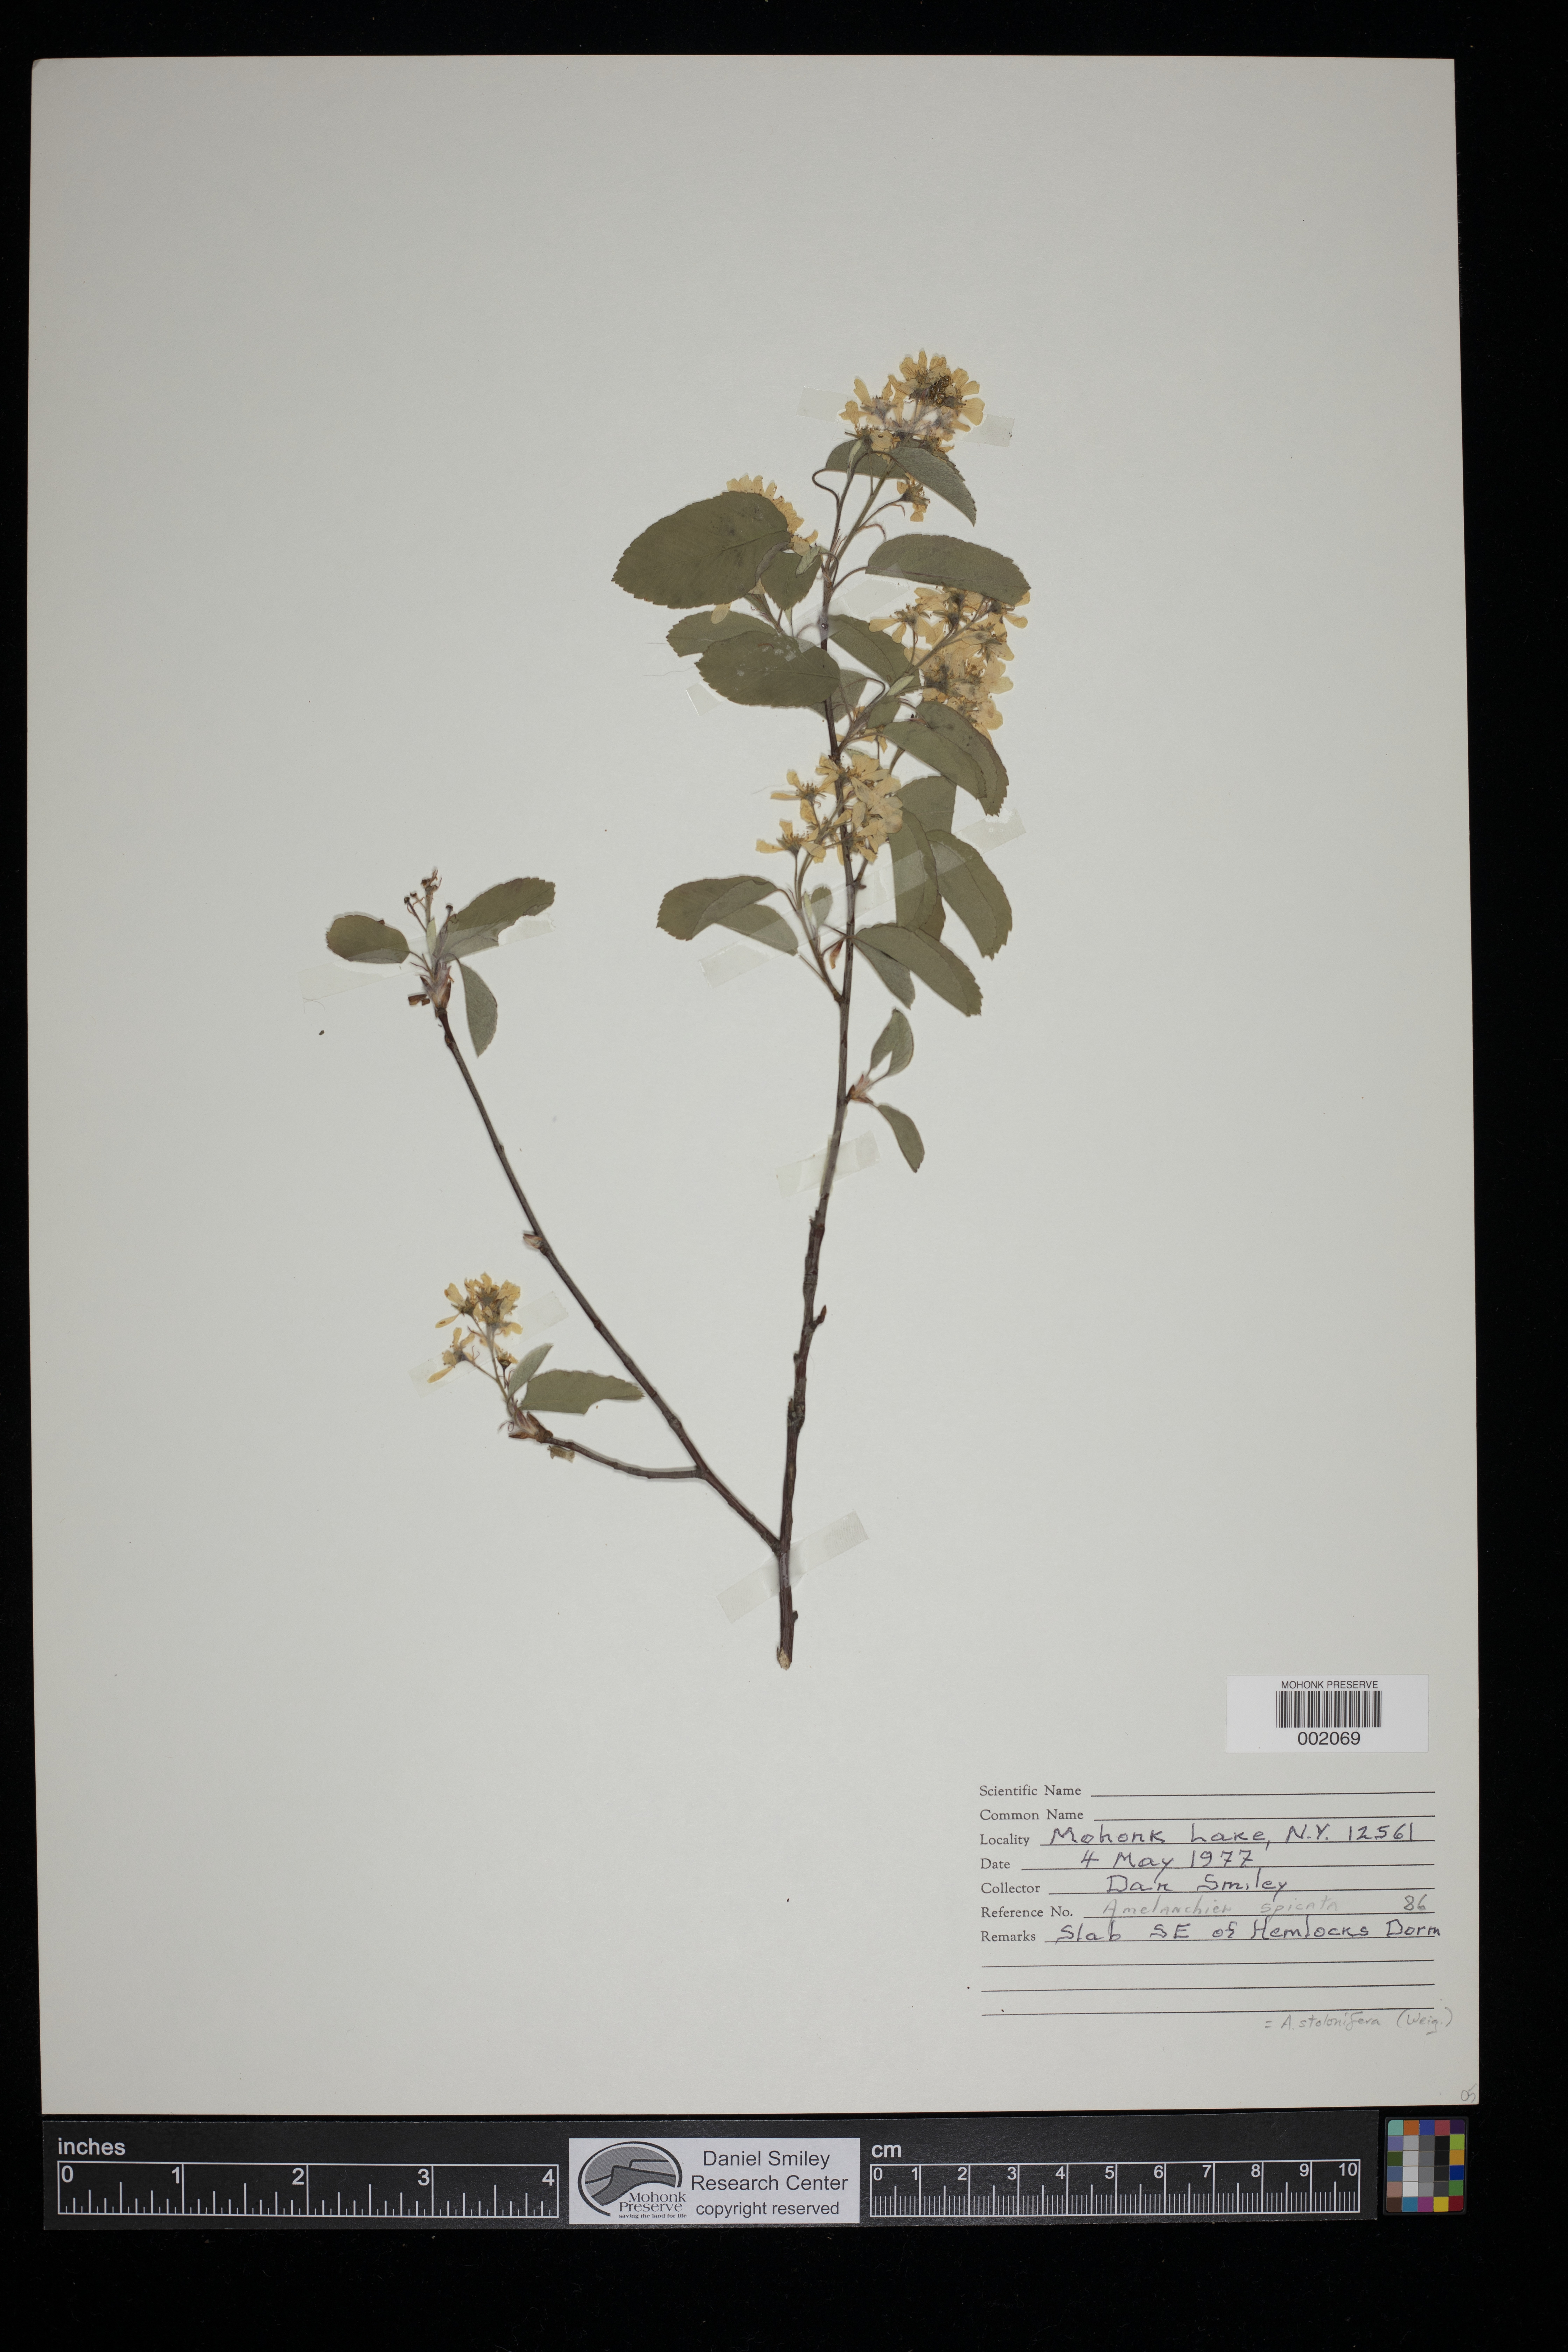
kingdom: Plantae
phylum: Tracheophyta
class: Magnoliopsida
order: Rosales
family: Rosaceae
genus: Amelanchier
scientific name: Amelanchier stolonifera
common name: Running serviceberry
